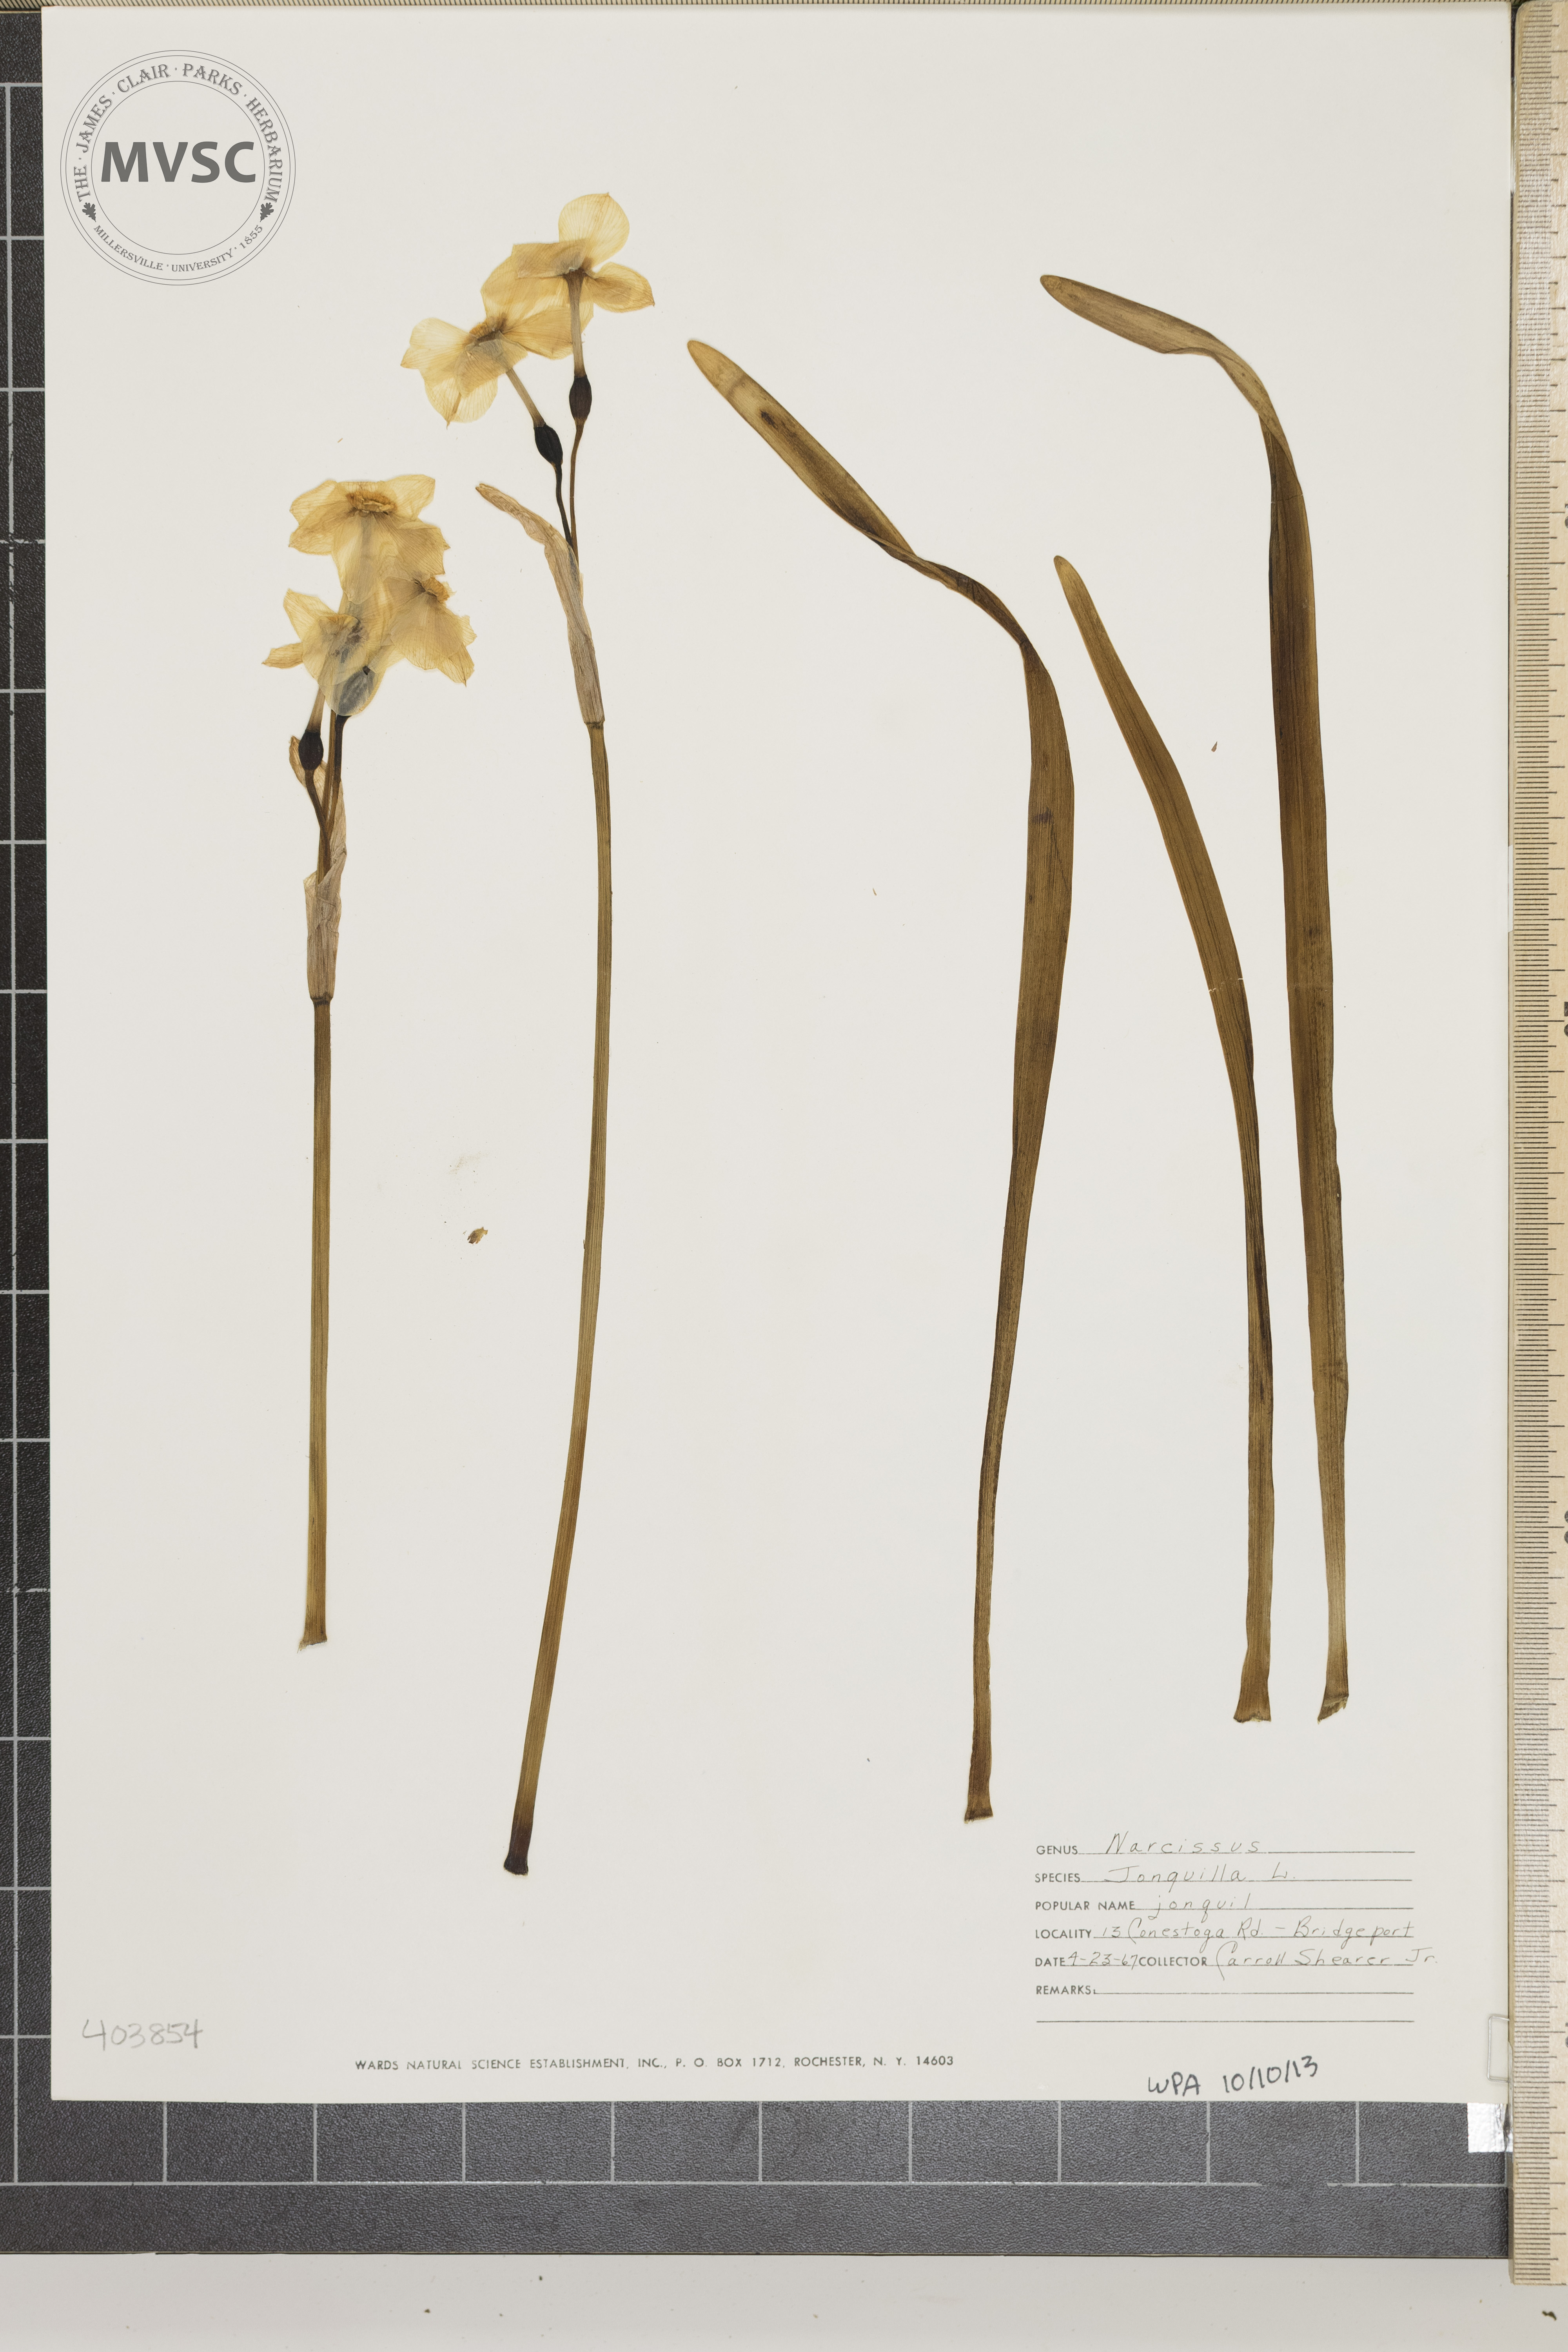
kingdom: Plantae
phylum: Tracheophyta
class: Liliopsida
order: Asparagales
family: Amaryllidaceae
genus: Narcissus
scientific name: Narcissus jonquilla
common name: jonquil
